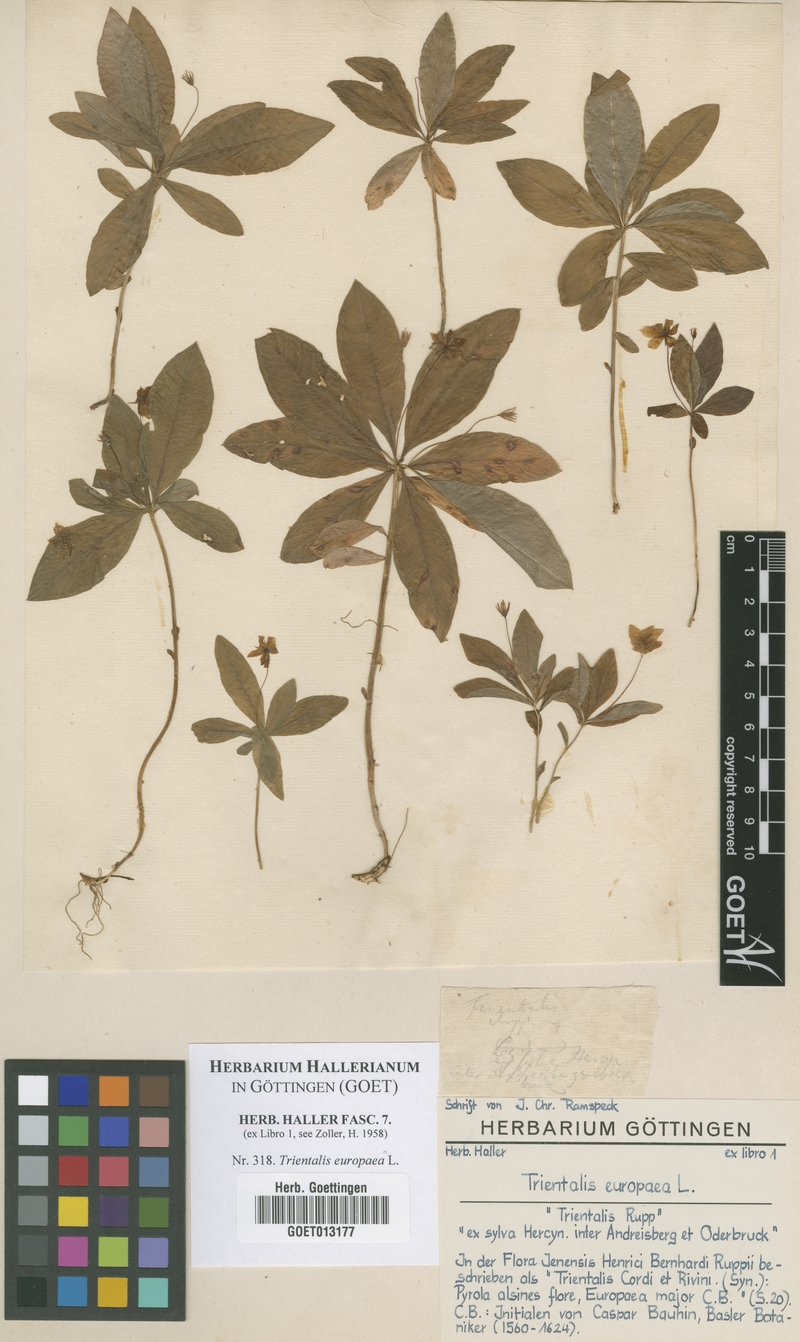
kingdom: Plantae
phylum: Tracheophyta
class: Magnoliopsida
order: Ericales
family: Primulaceae
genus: Lysimachia
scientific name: Lysimachia europaea
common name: Arctic starflower
